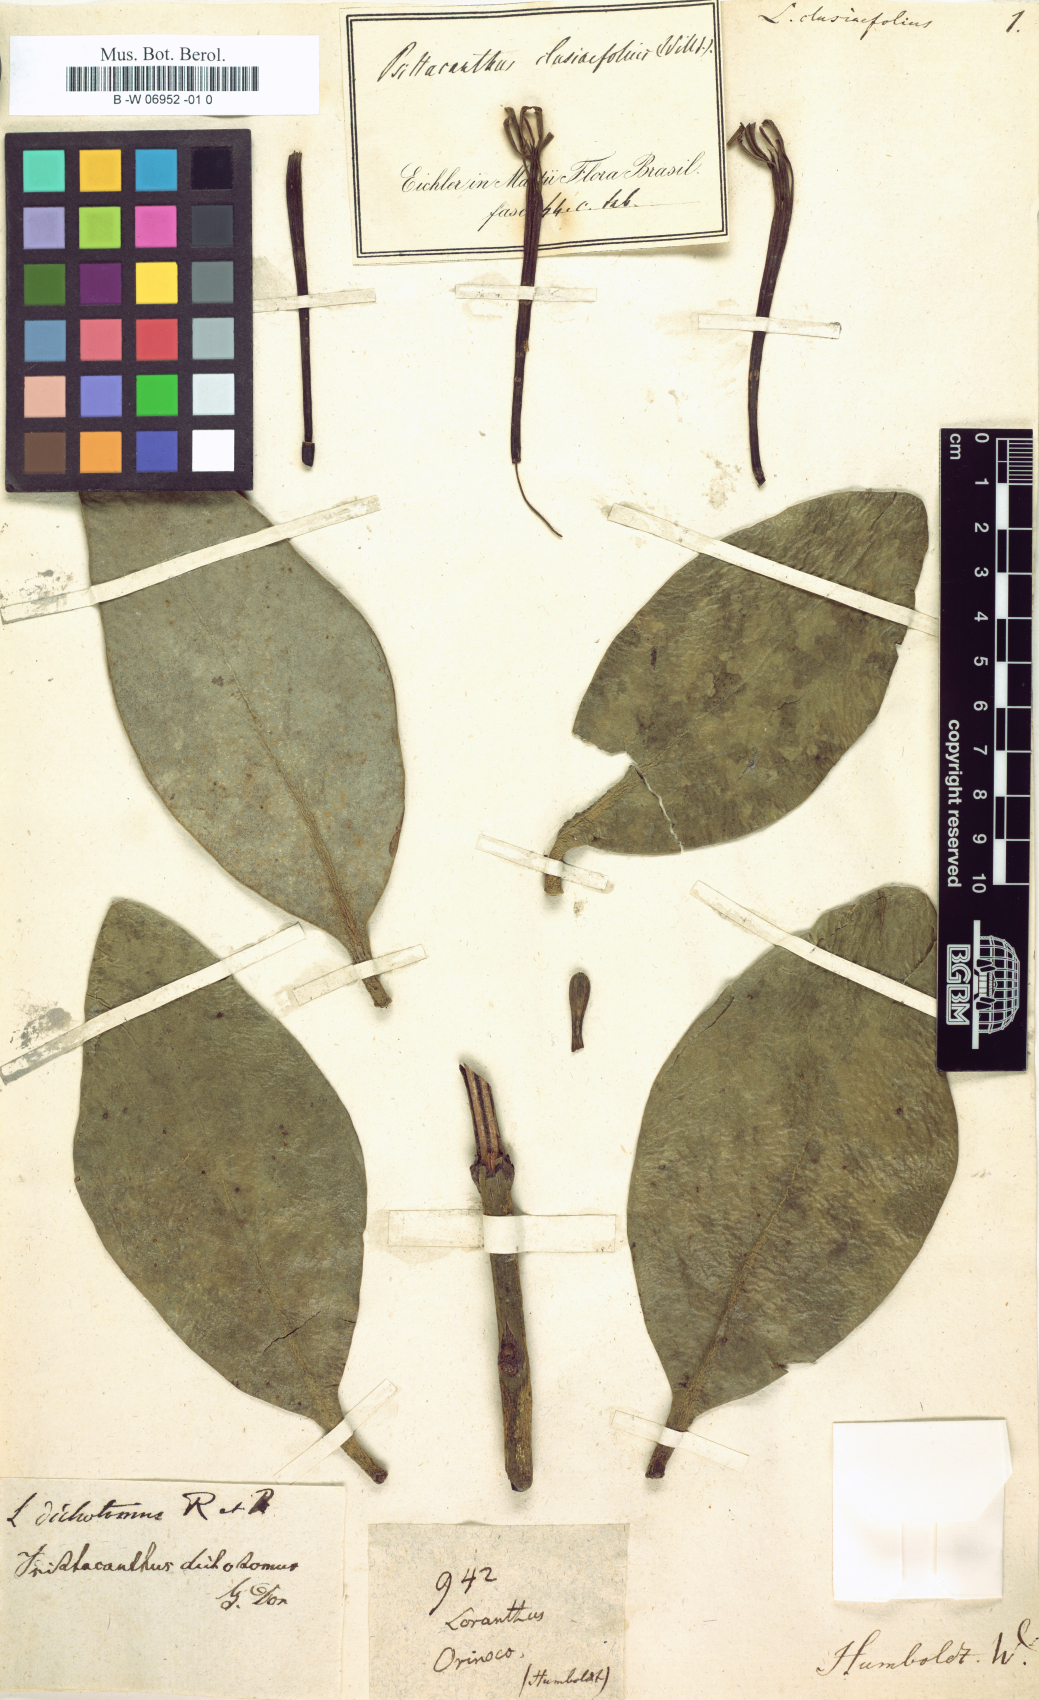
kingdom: Plantae
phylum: Tracheophyta
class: Magnoliopsida
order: Santalales
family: Loranthaceae
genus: Psittacanthus
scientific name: Psittacanthus clusiifolius
